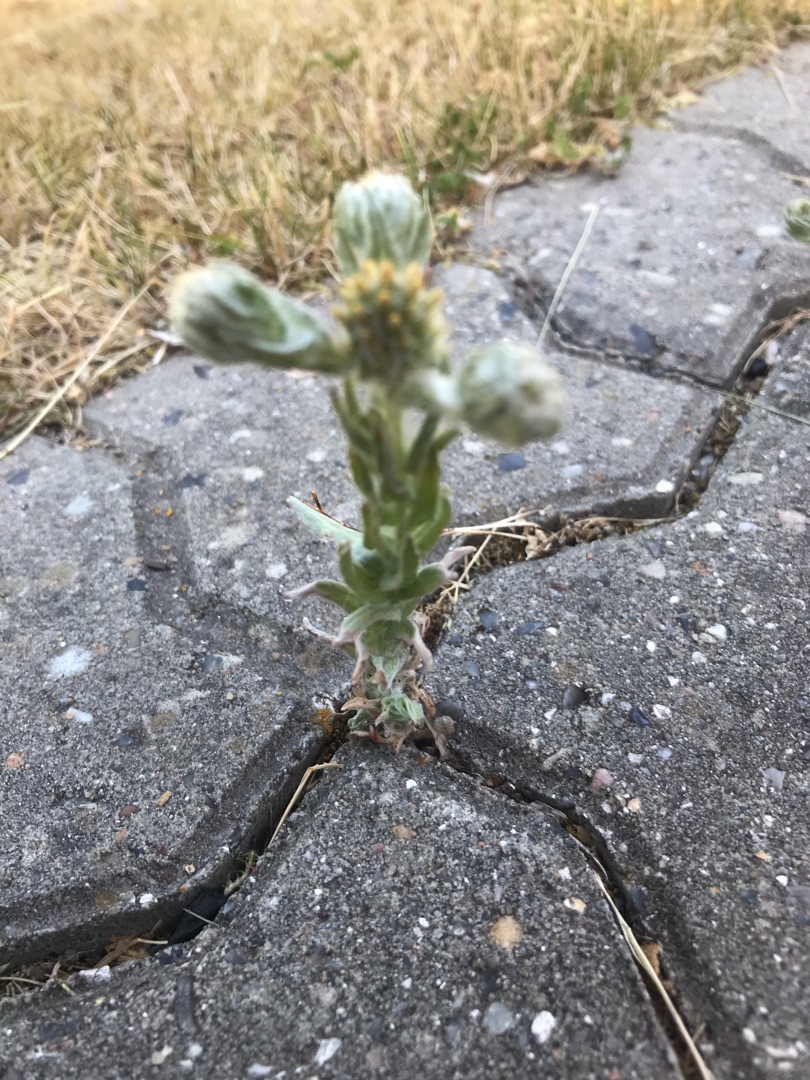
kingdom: Plantae
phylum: Tracheophyta
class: Magnoliopsida
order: Asterales
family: Asteraceae
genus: Filago
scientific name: Filago germanica
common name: Kugle-museurt
